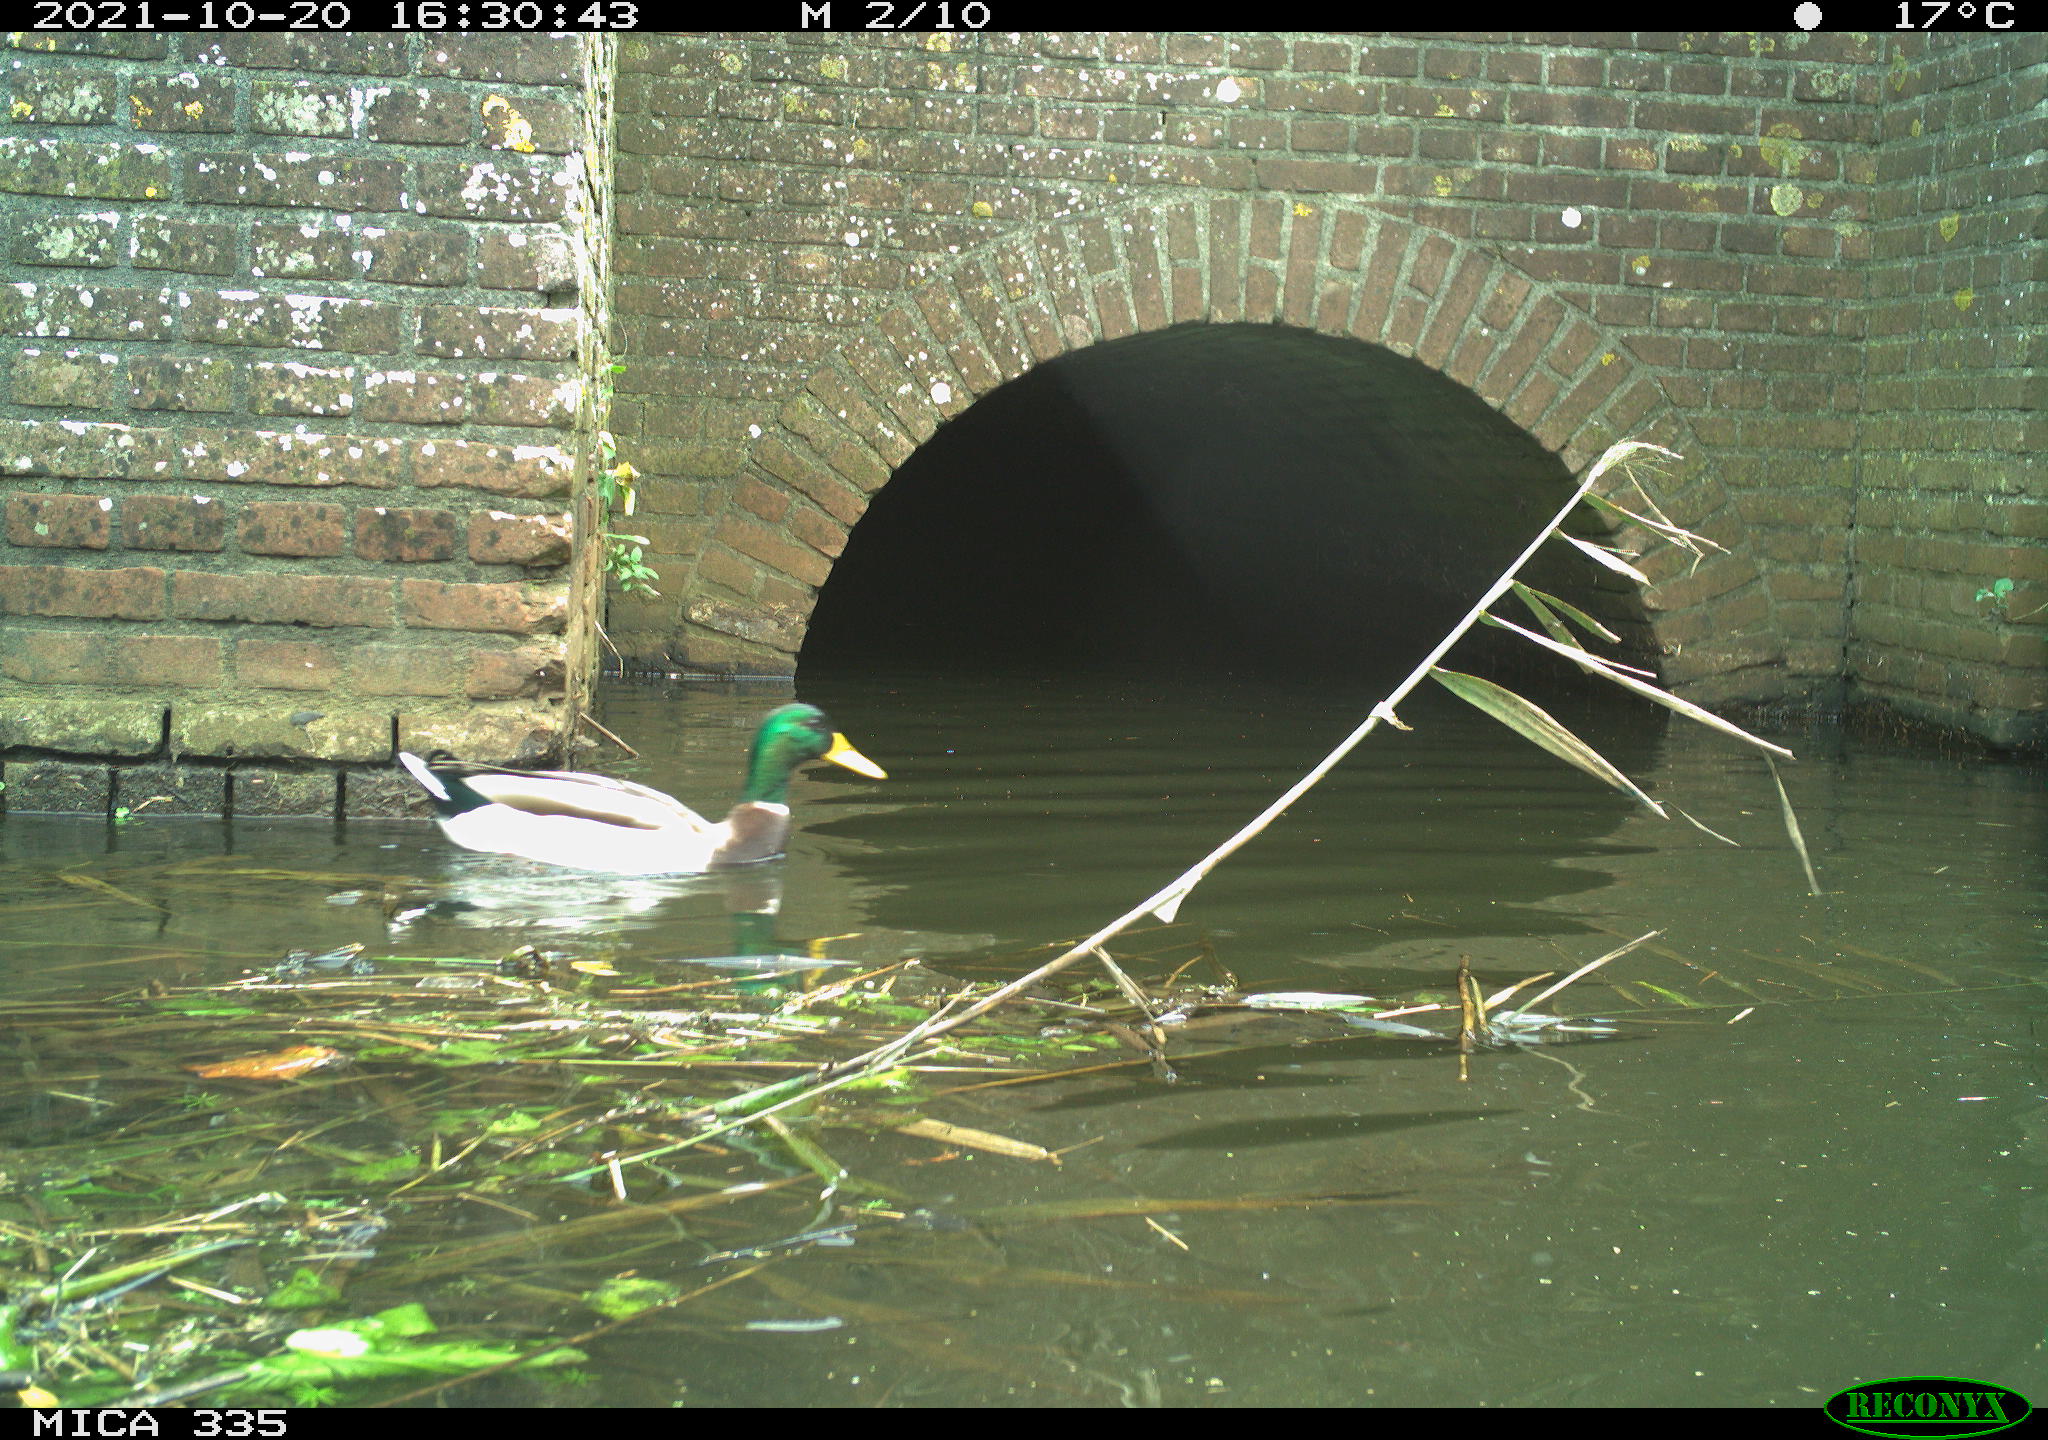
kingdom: Animalia
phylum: Chordata
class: Aves
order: Anseriformes
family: Anatidae
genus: Anas
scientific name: Anas platyrhynchos
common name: Mallard
